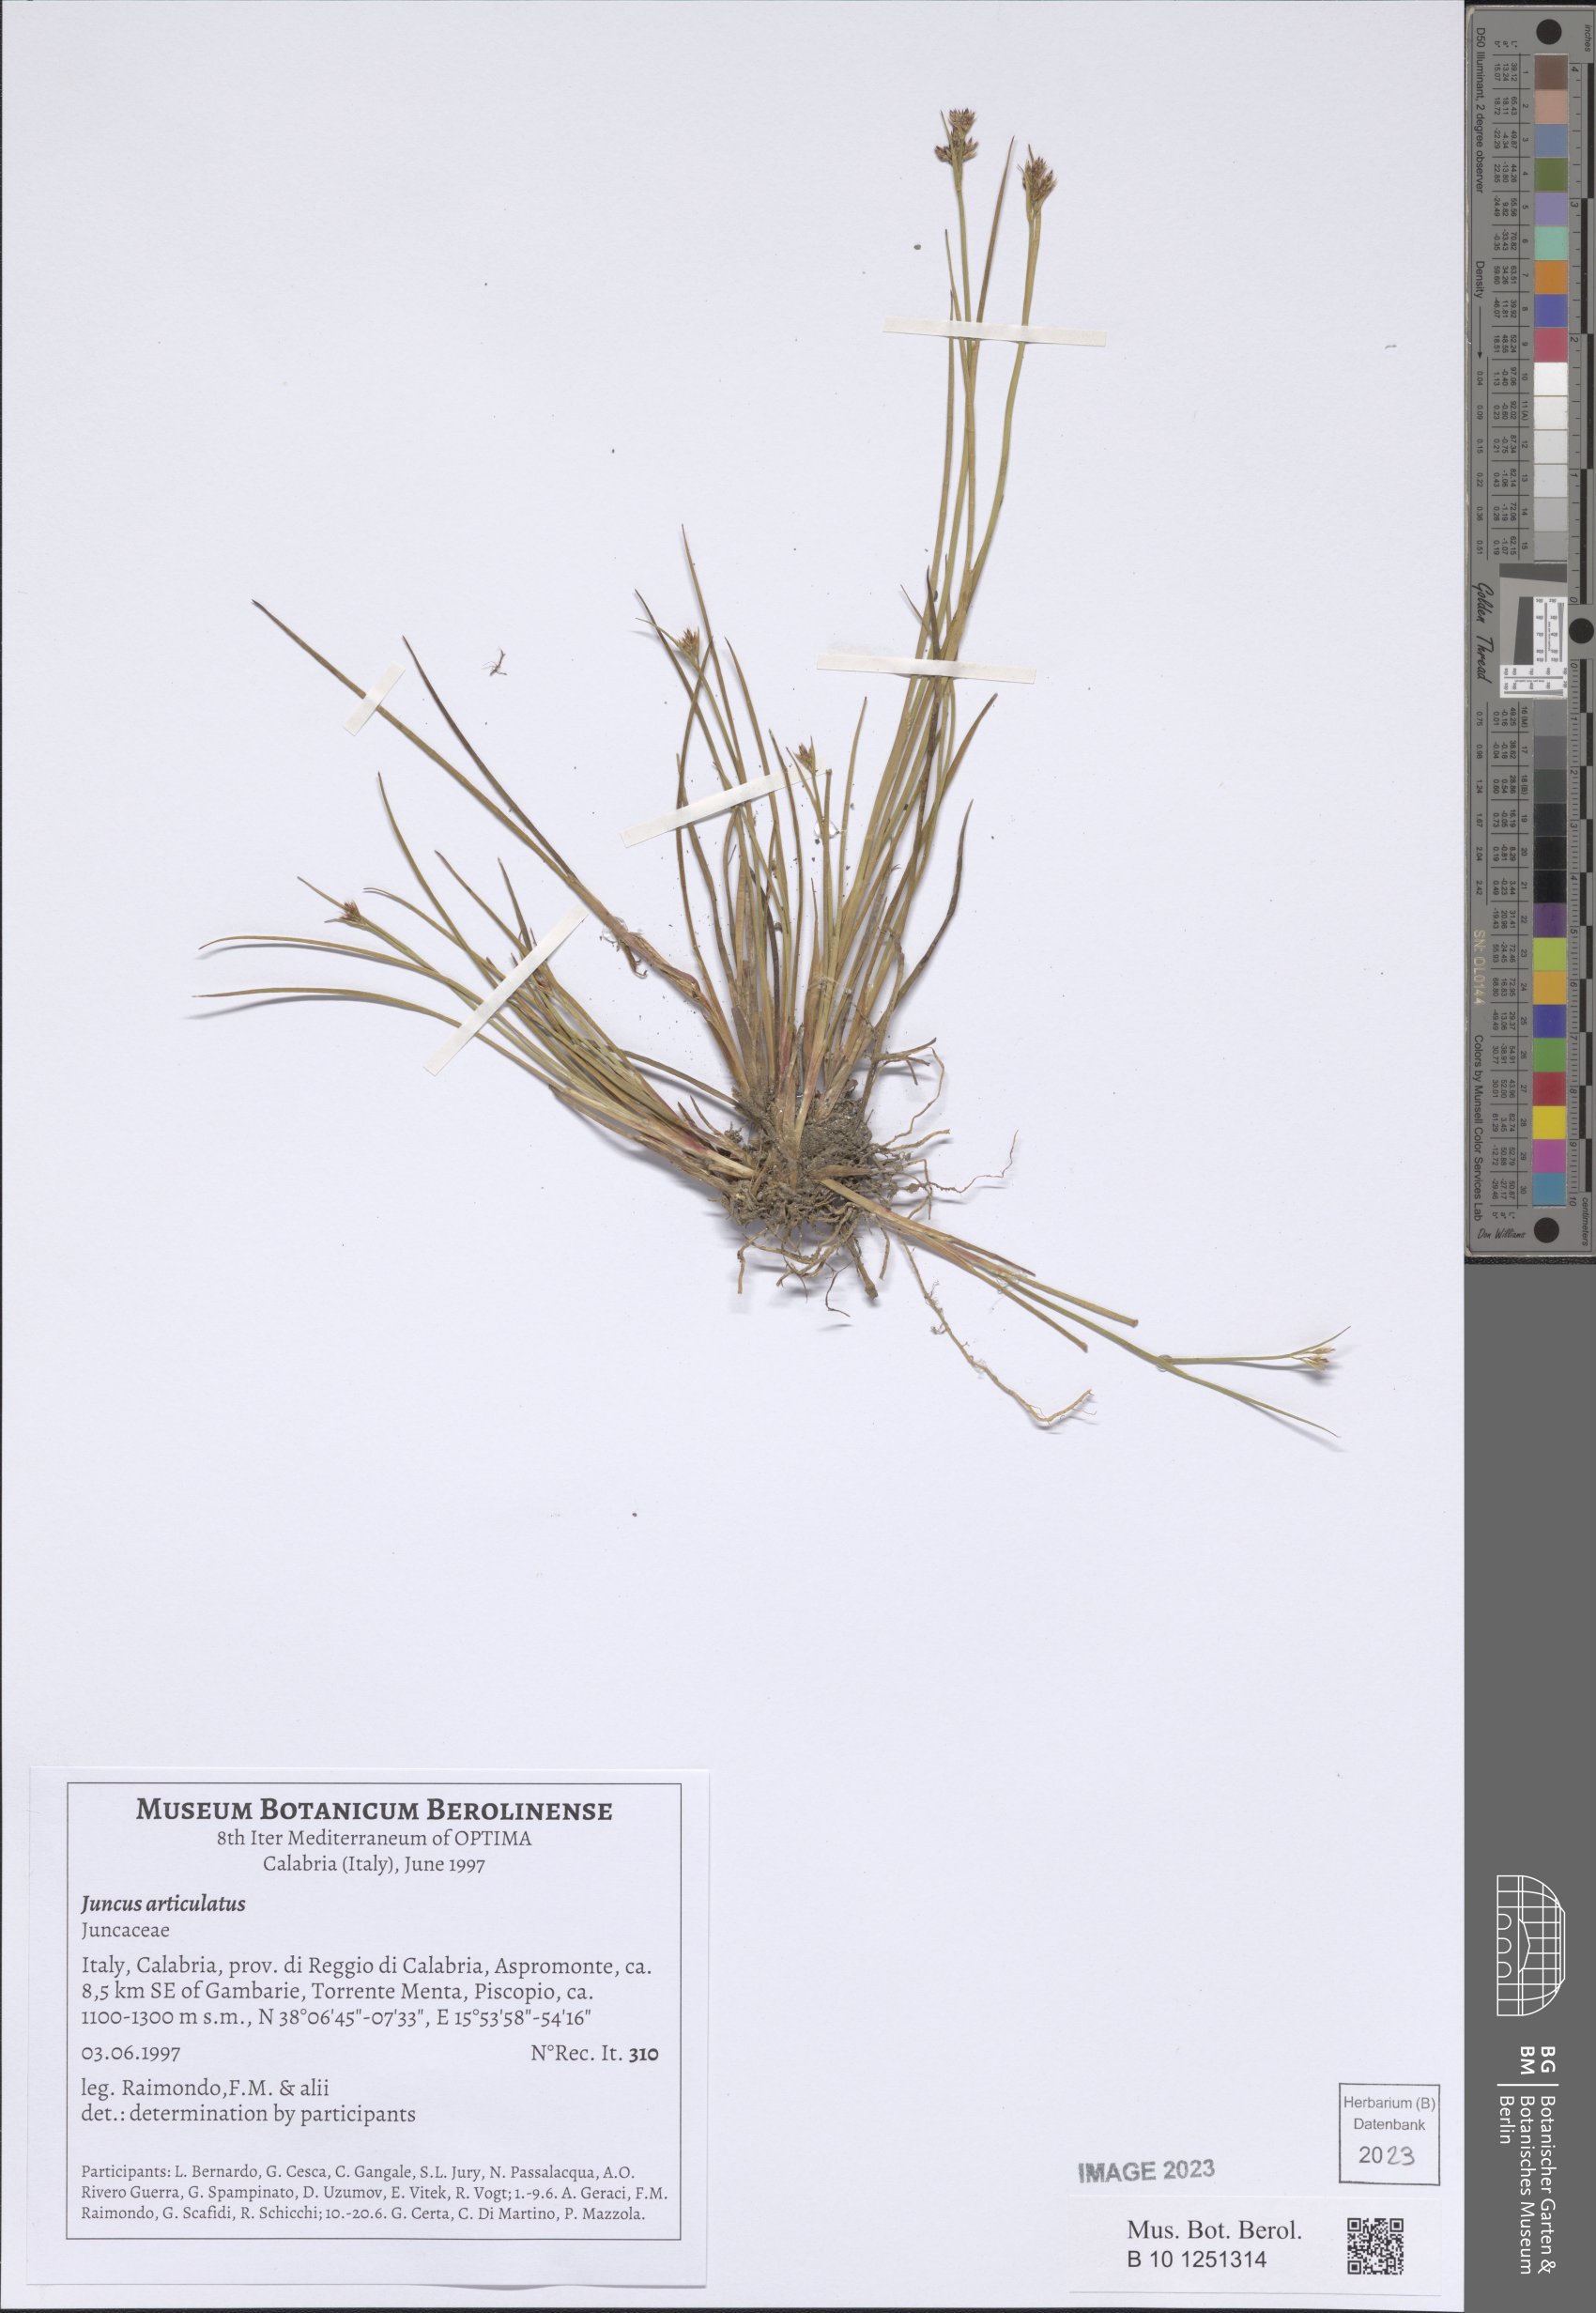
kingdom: Plantae
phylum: Tracheophyta
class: Liliopsida
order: Poales
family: Juncaceae
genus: Juncus
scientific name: Juncus articulatus
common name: Jointed rush
